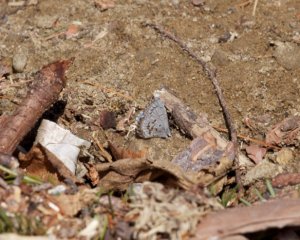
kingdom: Animalia
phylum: Arthropoda
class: Insecta
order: Lepidoptera
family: Lycaenidae
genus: Celastrina
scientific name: Celastrina lucia
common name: Northern Spring Azure
